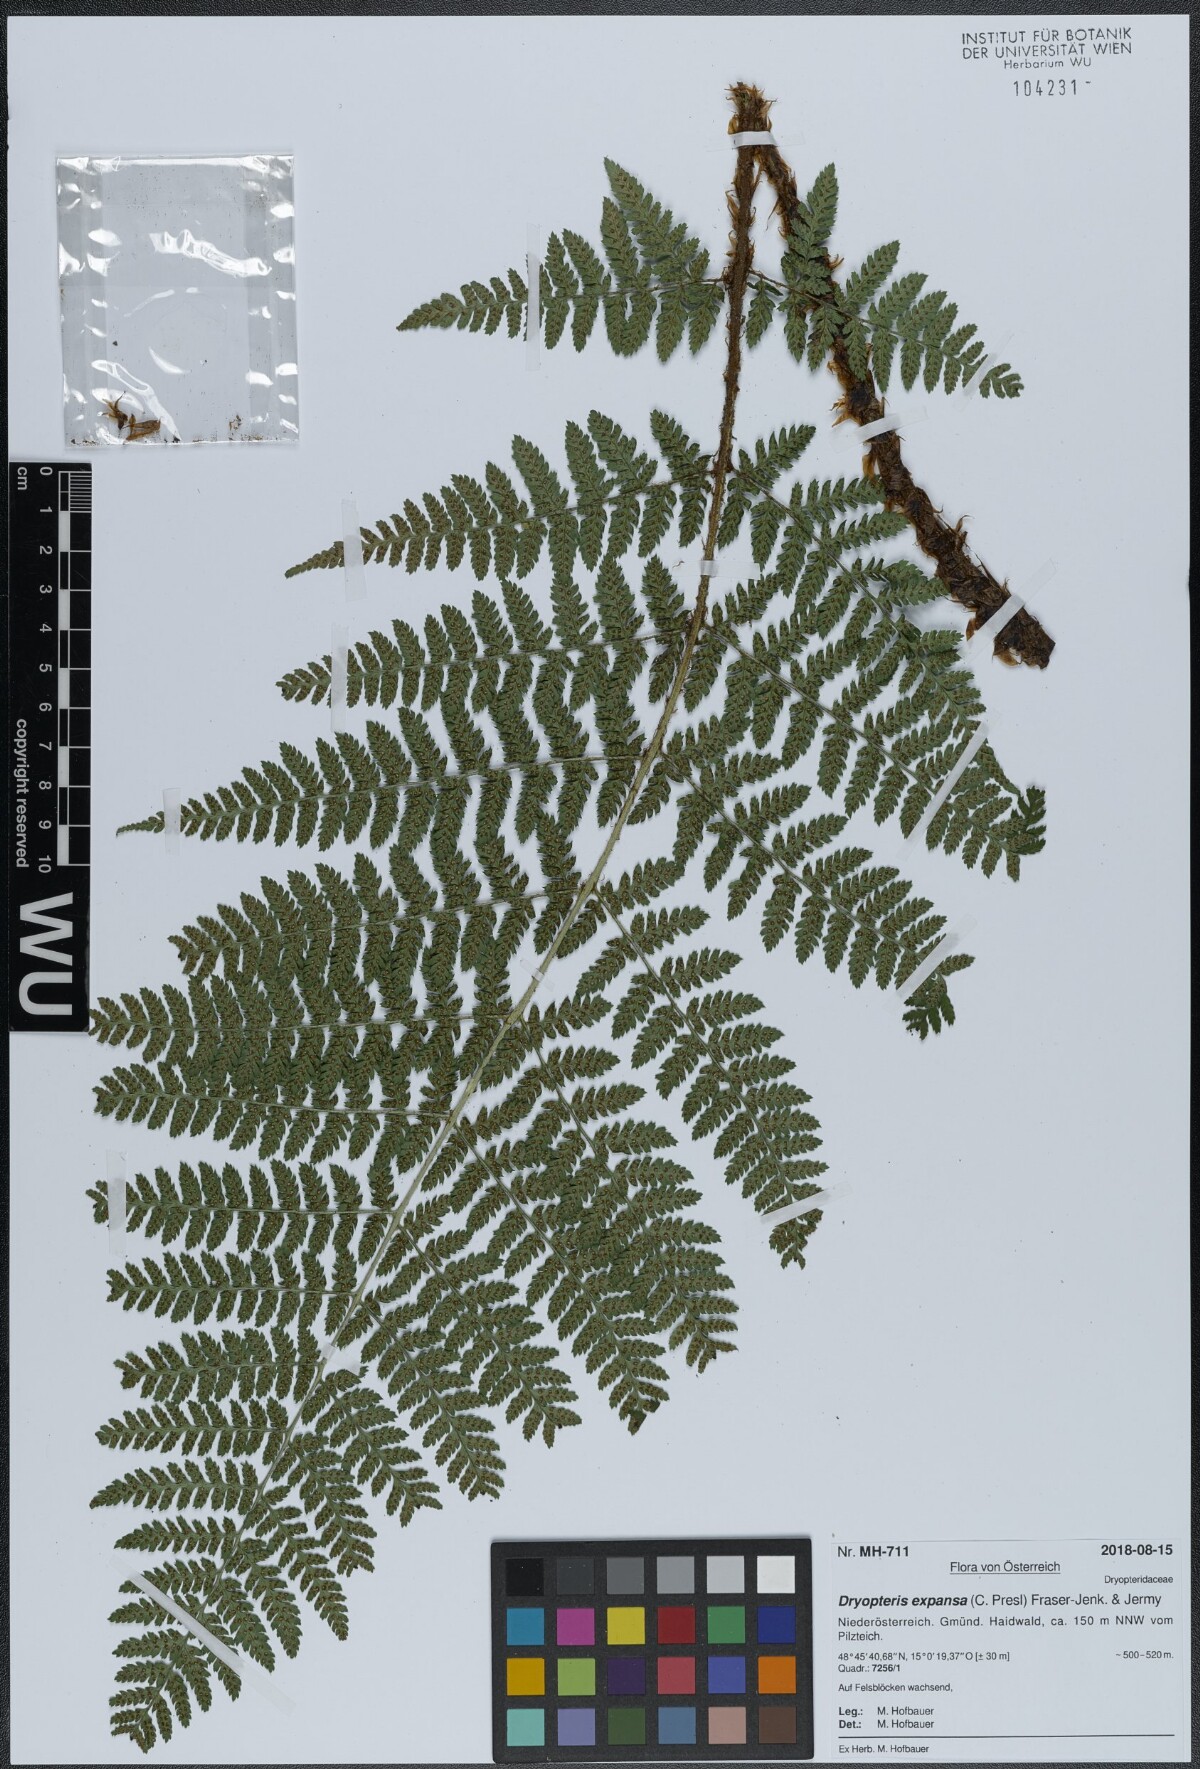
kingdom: Plantae
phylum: Tracheophyta
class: Polypodiopsida
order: Polypodiales
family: Dryopteridaceae
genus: Dryopteris
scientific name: Dryopteris expansa
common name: Northern buckler fern
